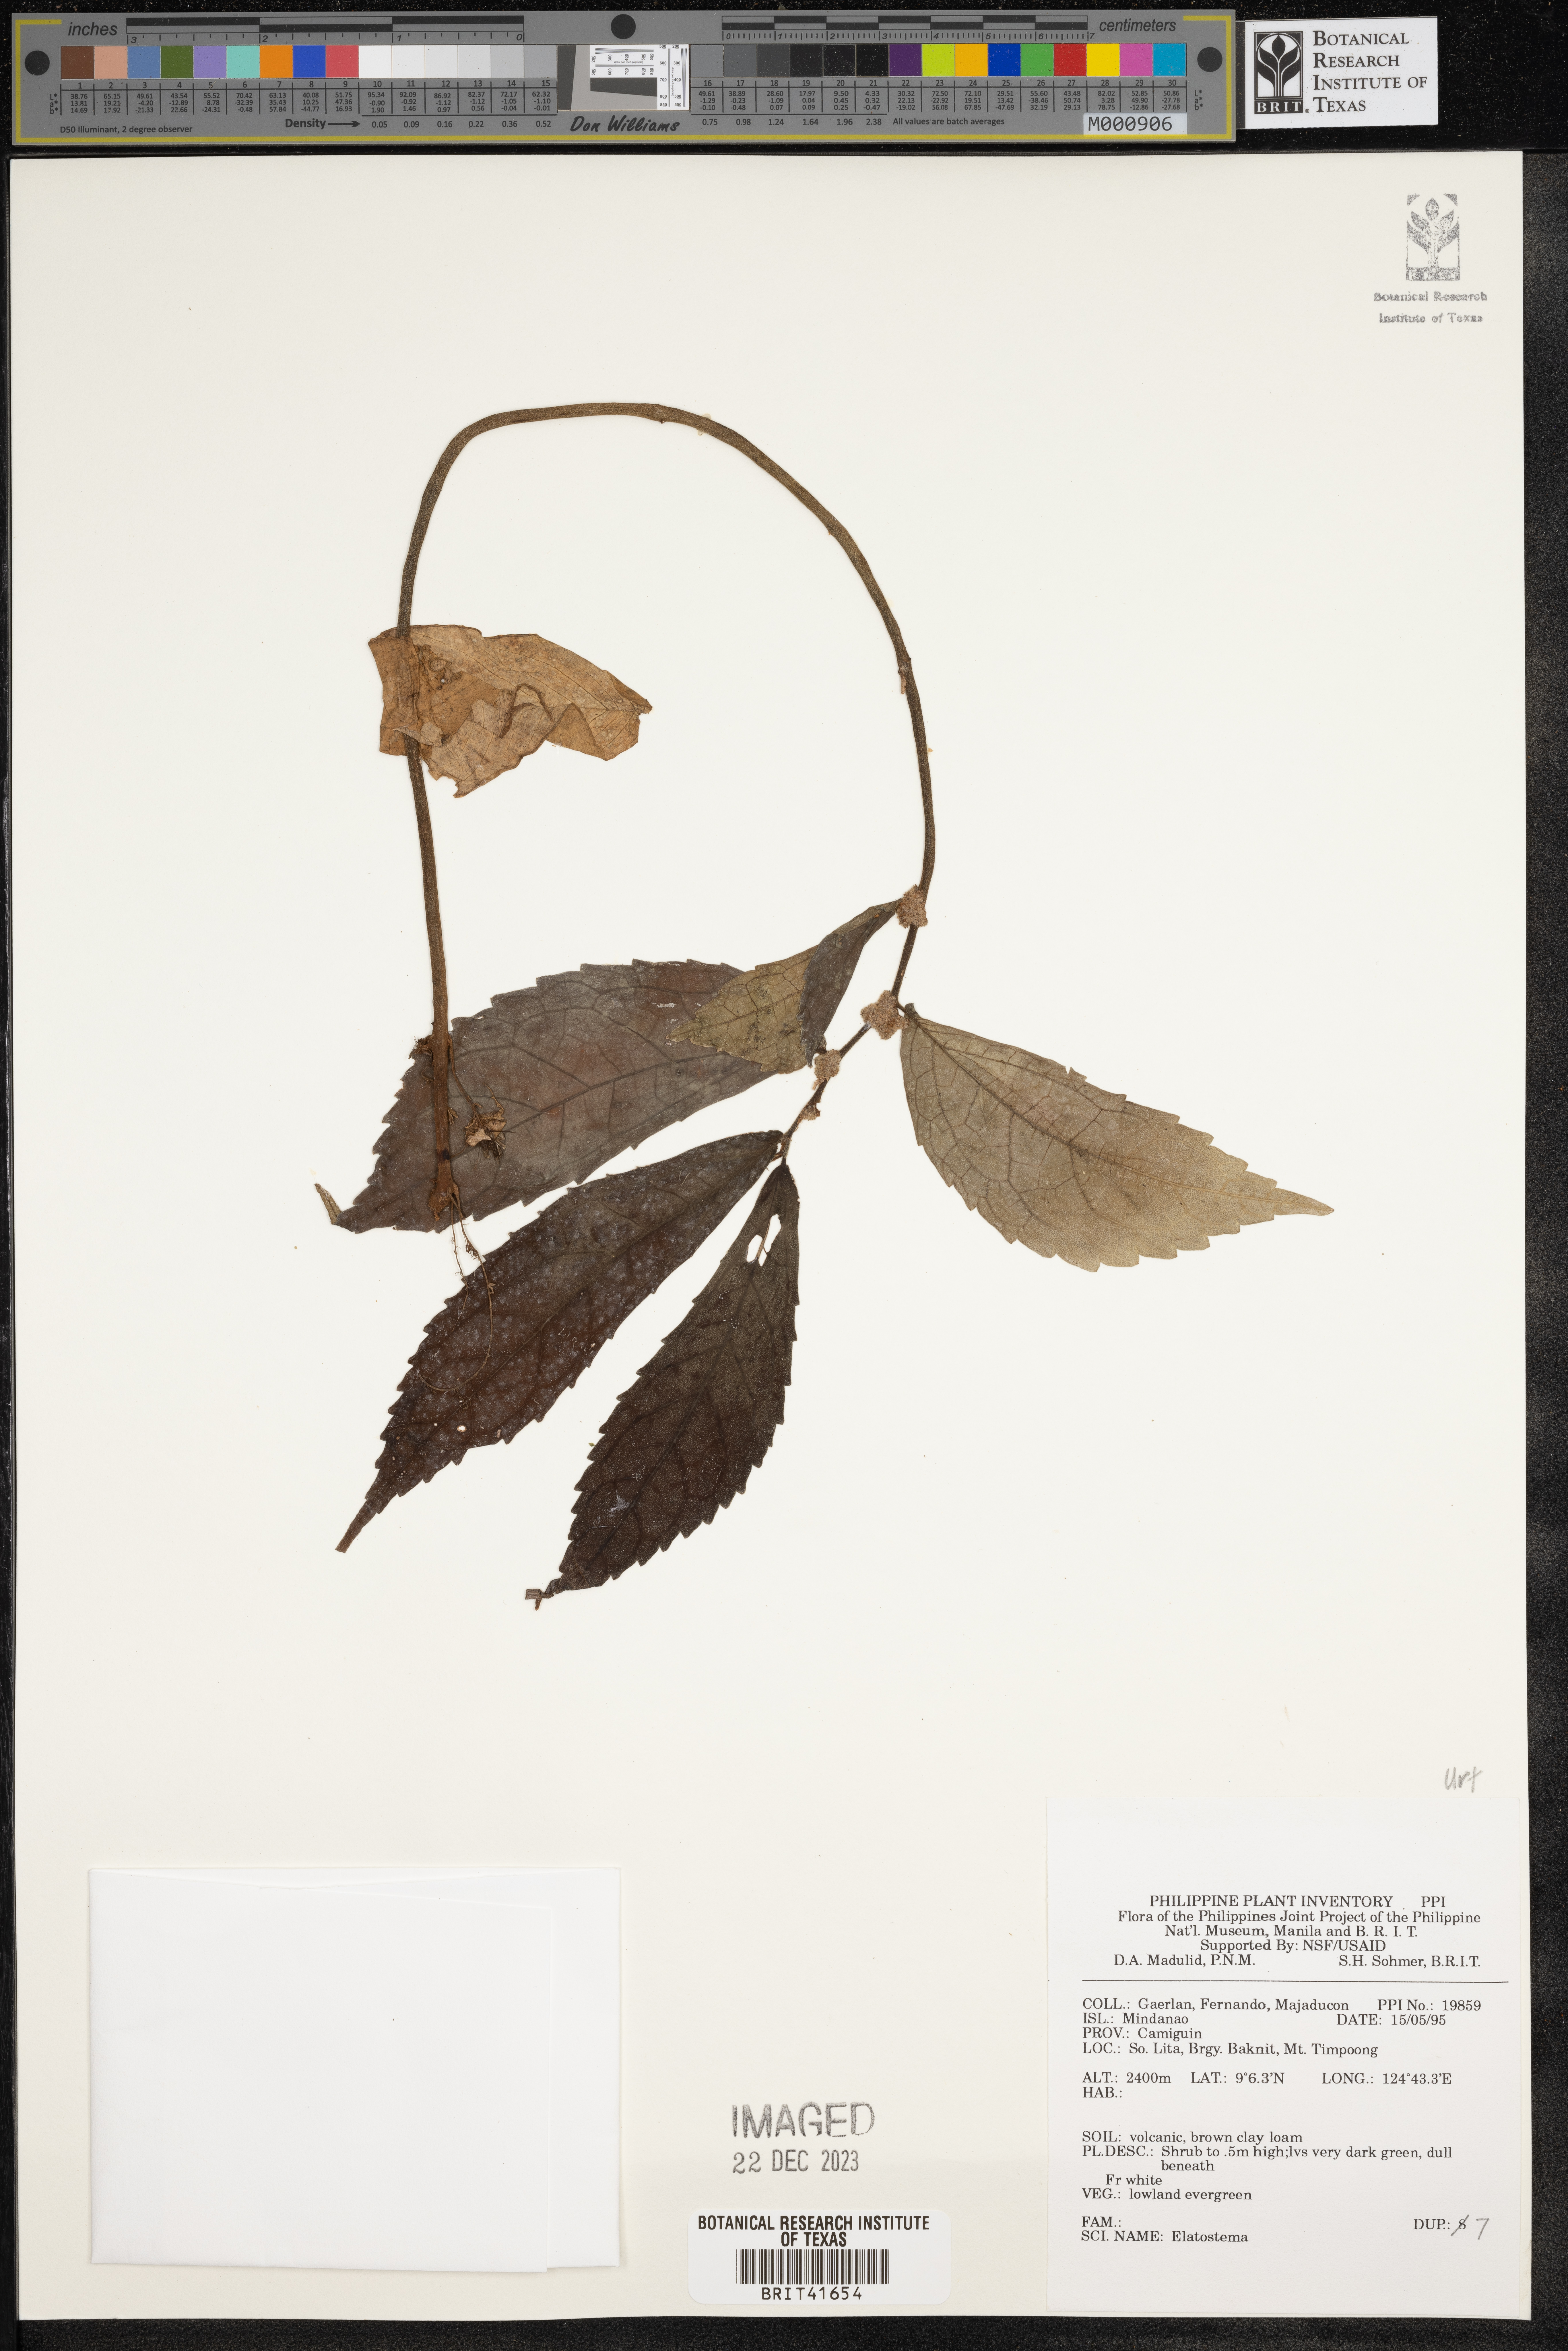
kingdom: Plantae
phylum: Tracheophyta
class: Magnoliopsida
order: Rosales
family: Urticaceae
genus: Elatostema
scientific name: Elatostema
